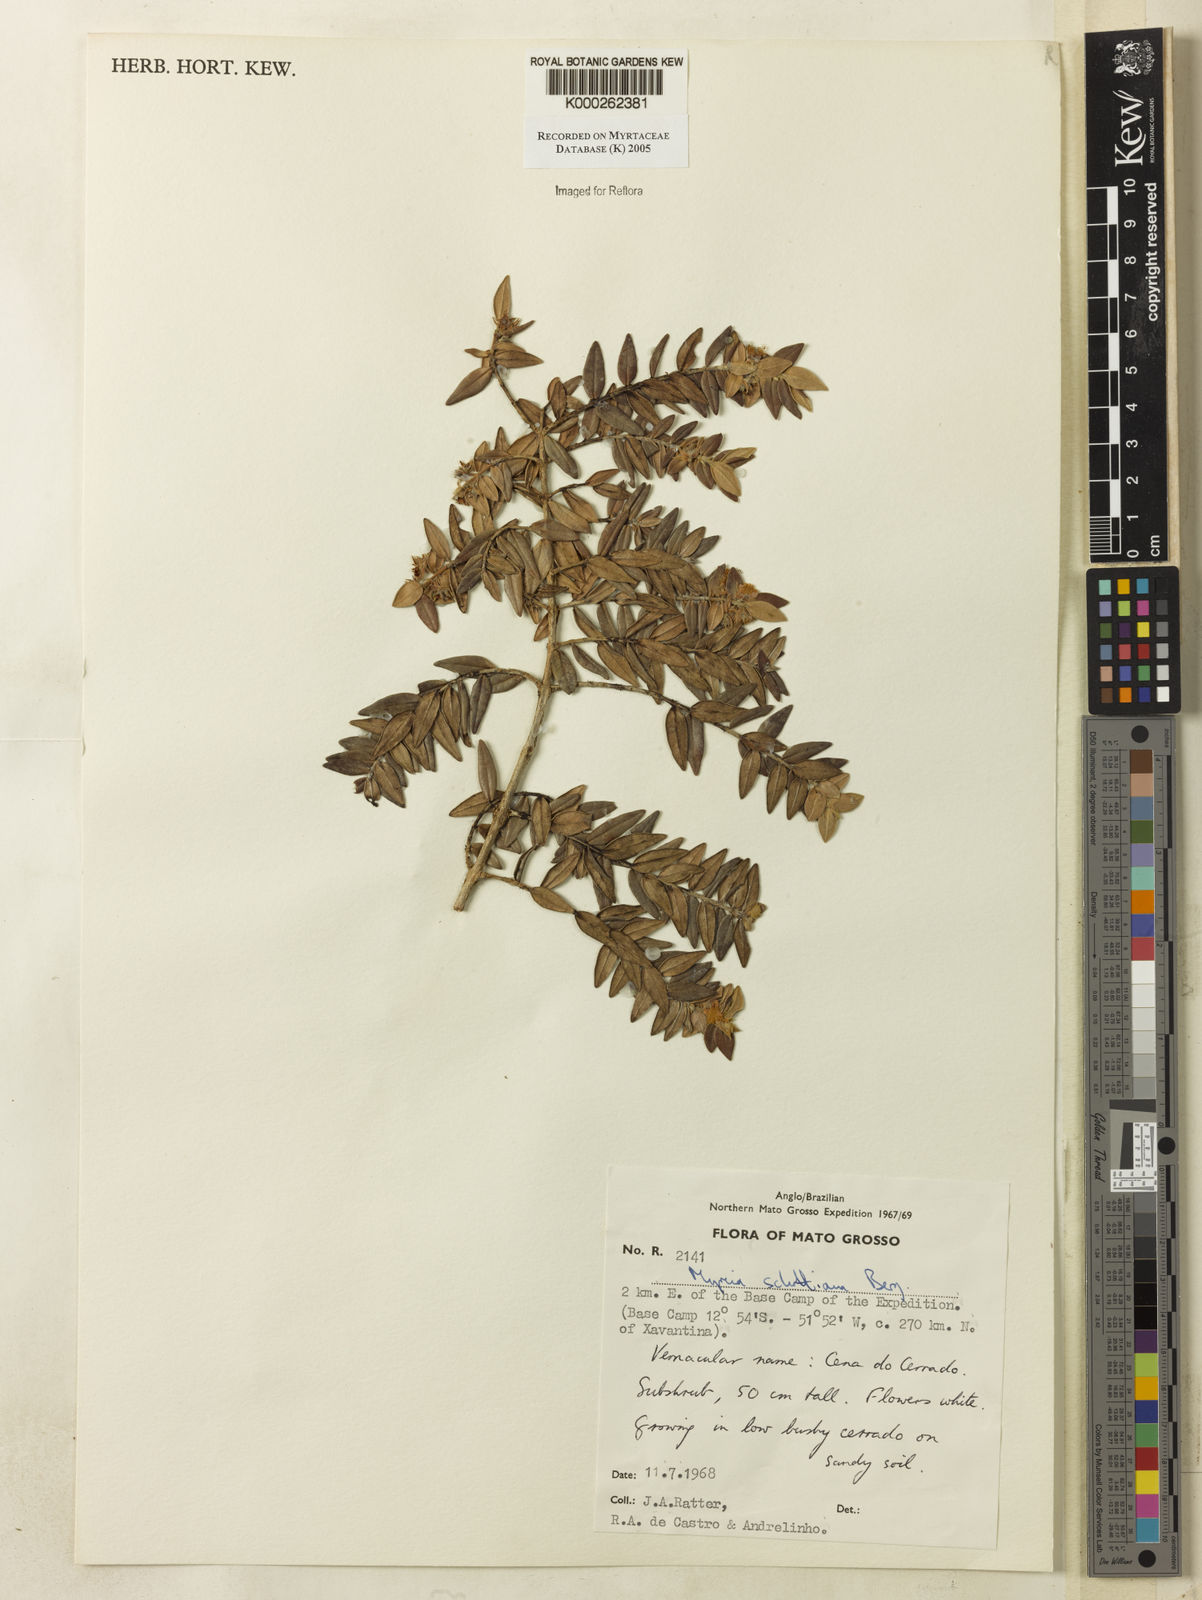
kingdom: Plantae
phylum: Tracheophyta
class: Magnoliopsida
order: Myrtales
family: Myrtaceae
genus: Myrcia
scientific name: Myrcia schottiana
